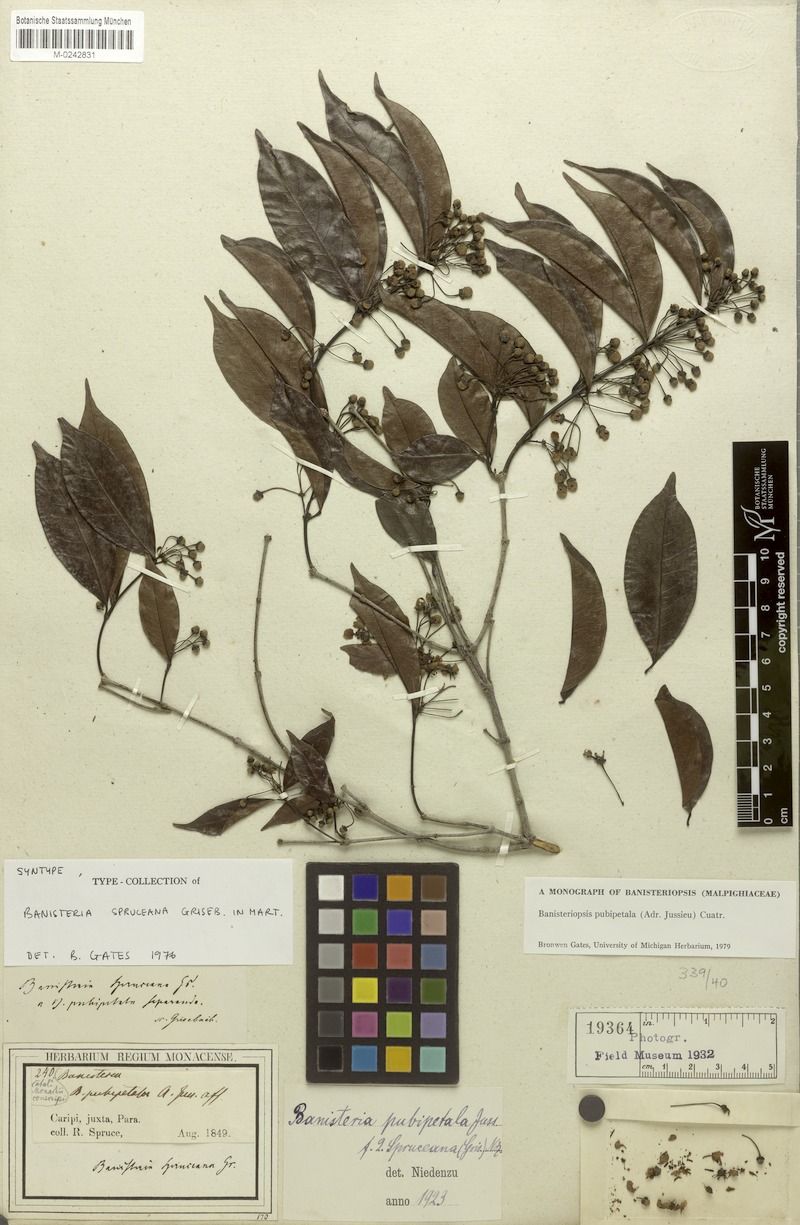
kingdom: Plantae
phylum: Tracheophyta
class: Magnoliopsida
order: Malpighiales
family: Malpighiaceae
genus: Diplopterys
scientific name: Diplopterys pubipetala
